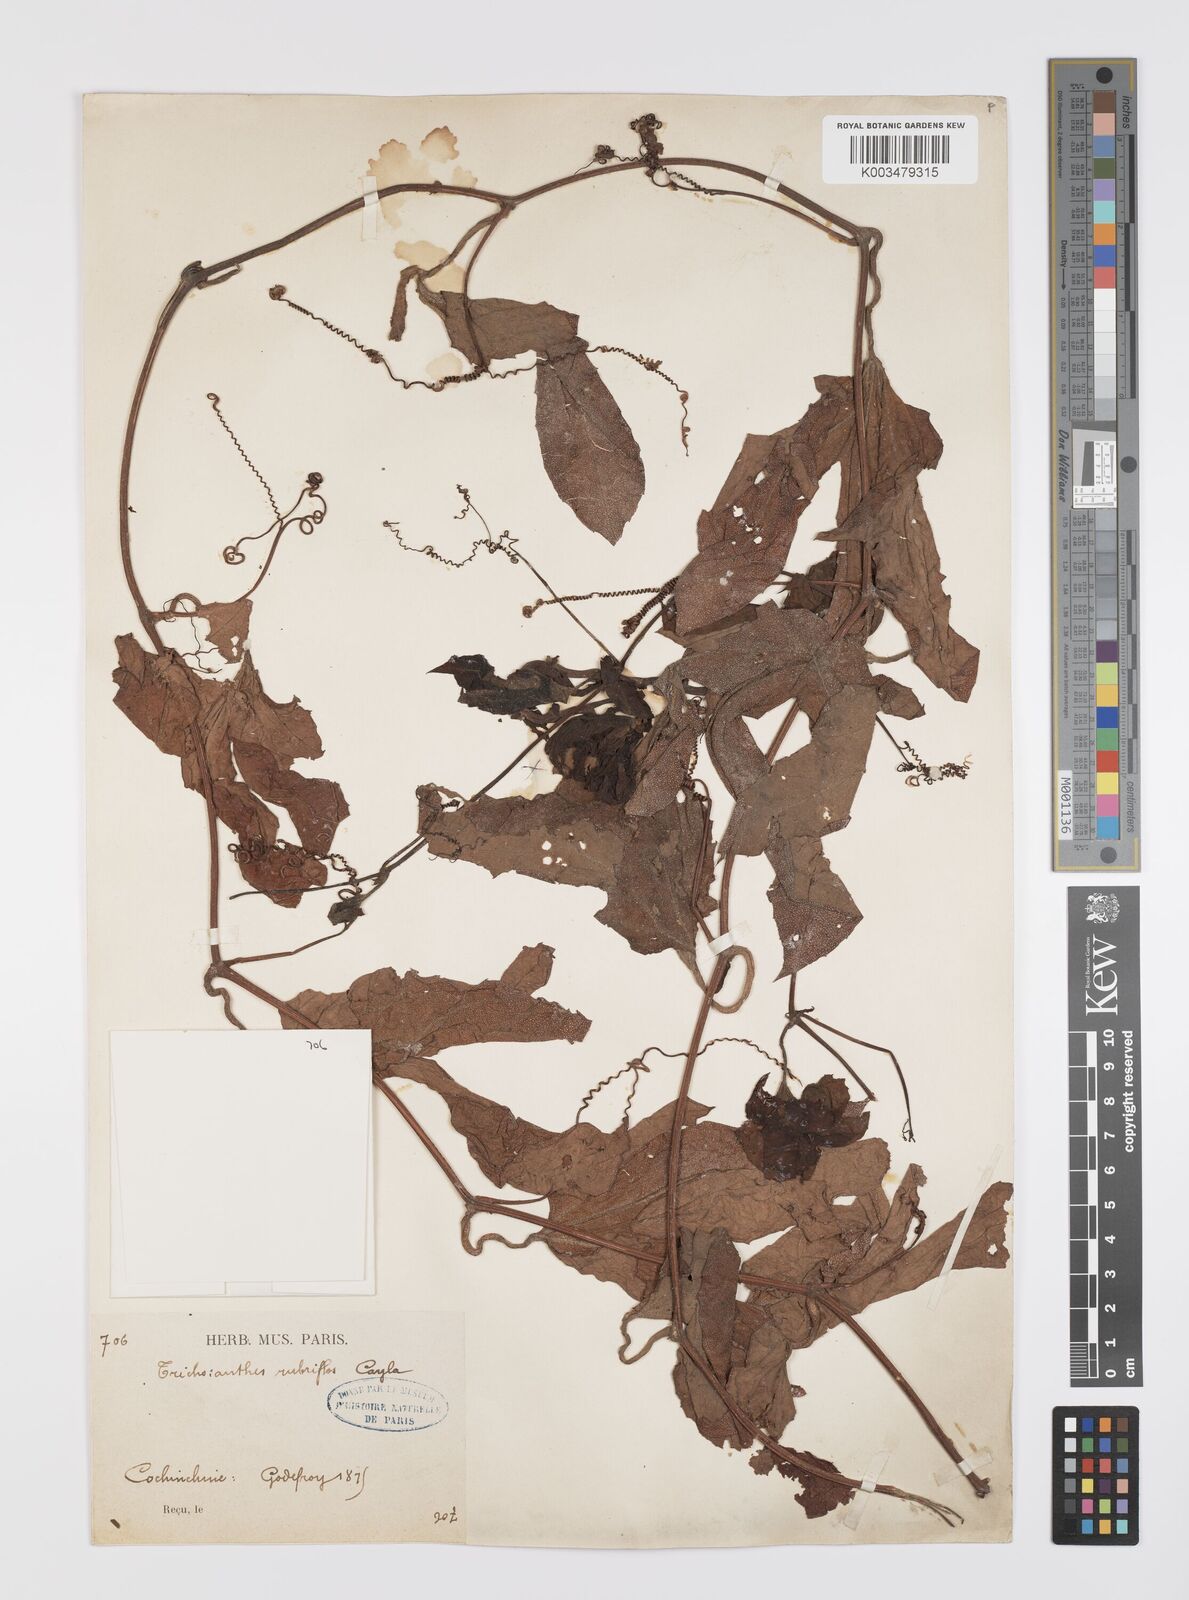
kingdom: Plantae
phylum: Tracheophyta
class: Magnoliopsida
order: Cucurbitales
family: Cucurbitaceae
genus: Trichosanthes
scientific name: Trichosanthes rubriflos
